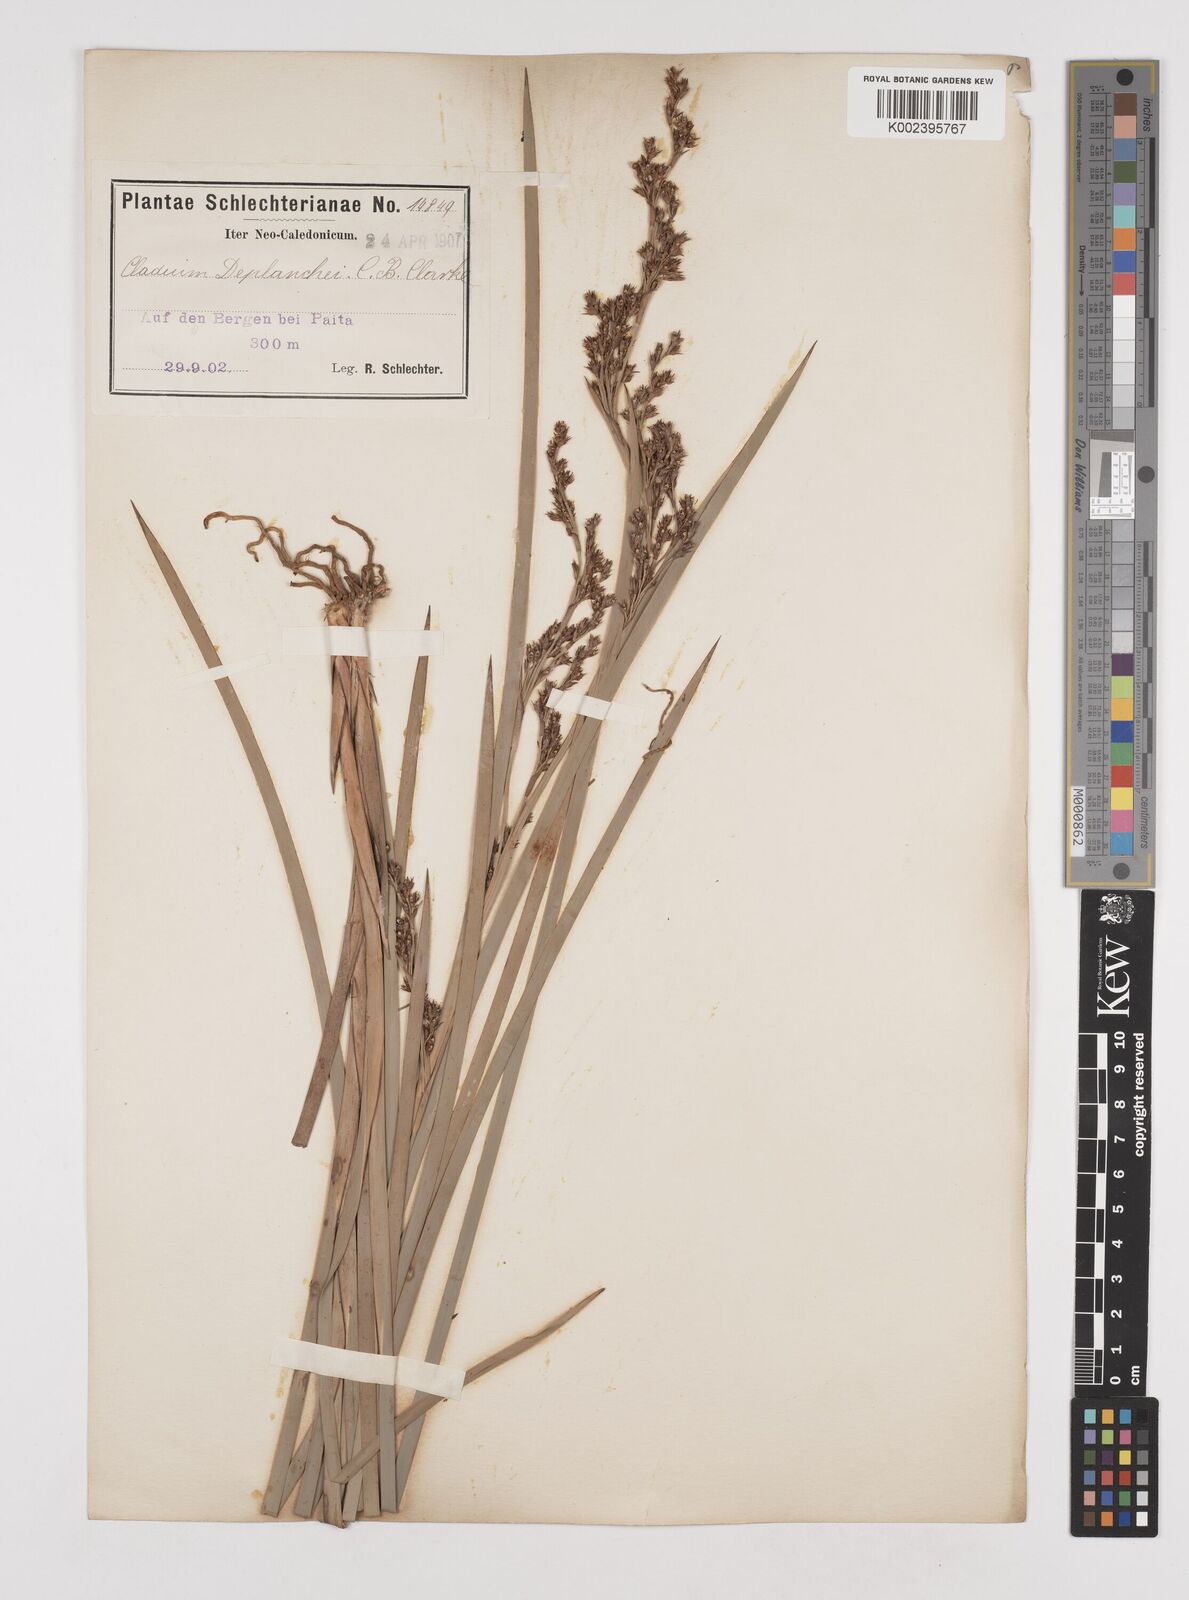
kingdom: Plantae
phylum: Tracheophyta
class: Liliopsida
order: Poales
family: Cyperaceae
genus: Machaerina
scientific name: Machaerina deplanchei
